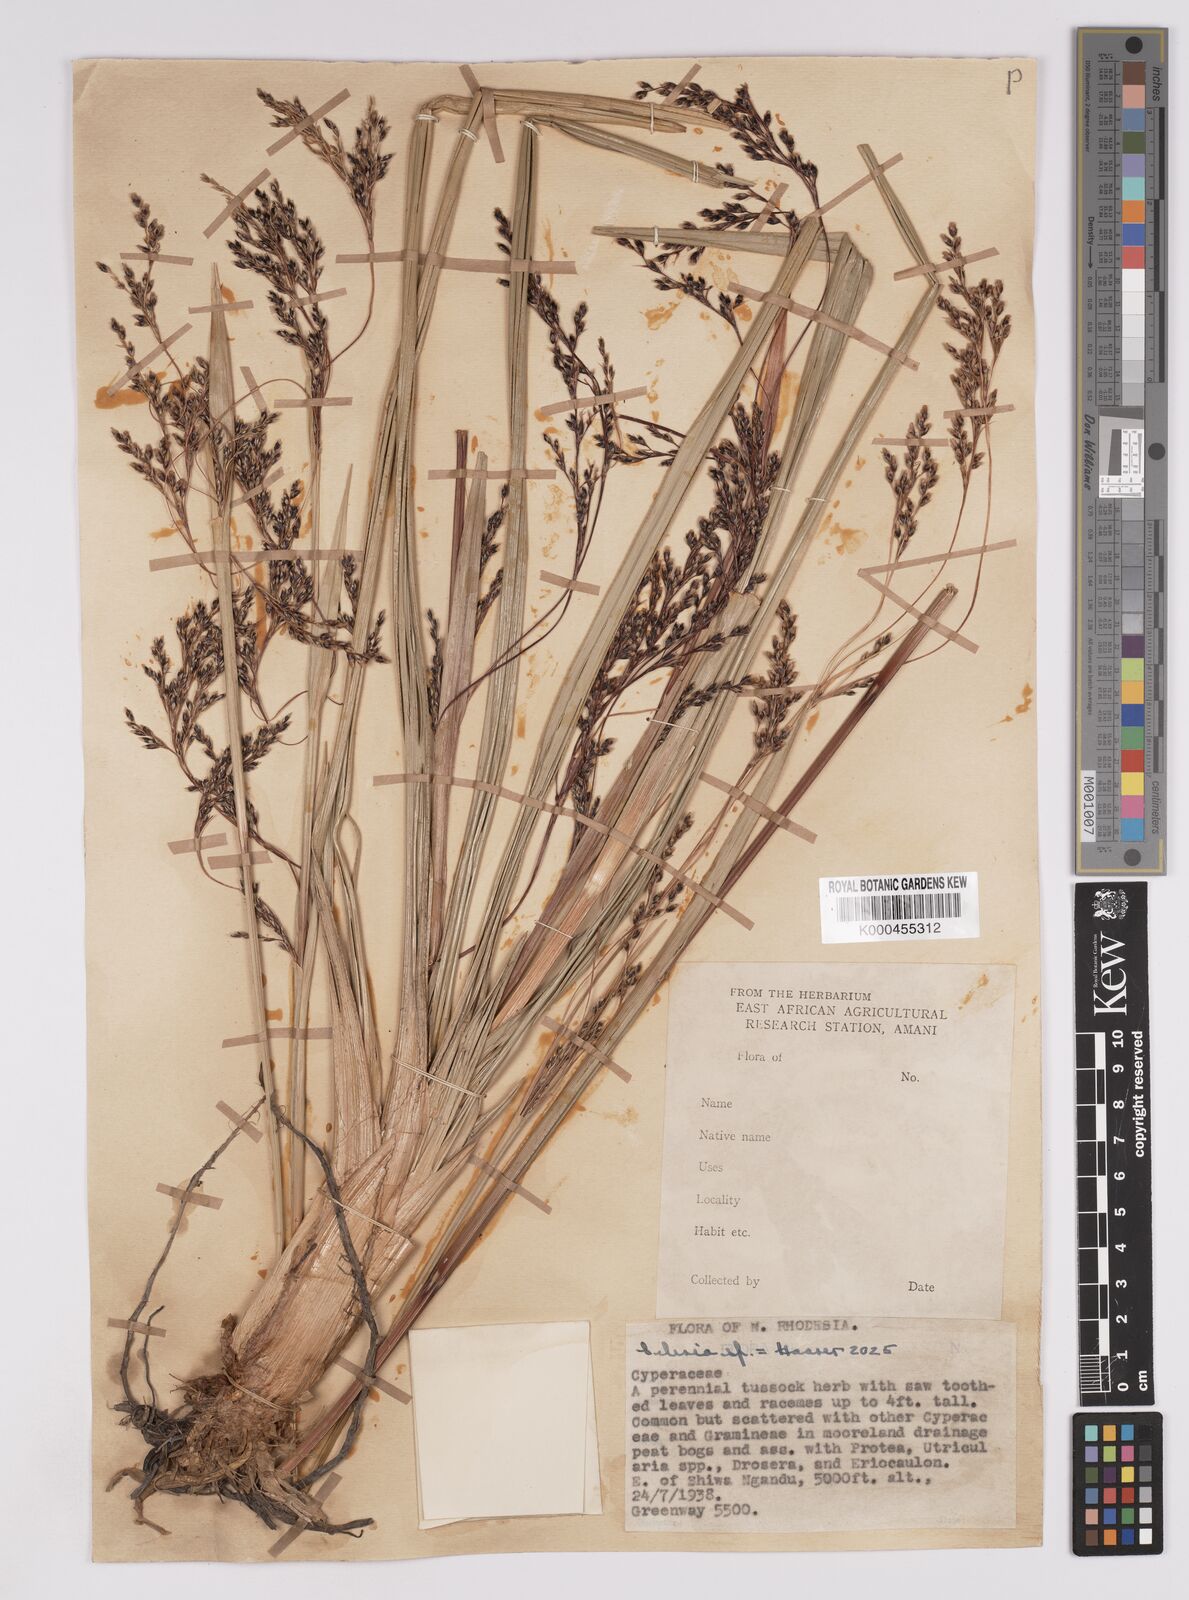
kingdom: Plantae
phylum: Tracheophyta
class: Liliopsida
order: Poales
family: Cyperaceae
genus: Scleria
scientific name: Scleria greigiifolia
